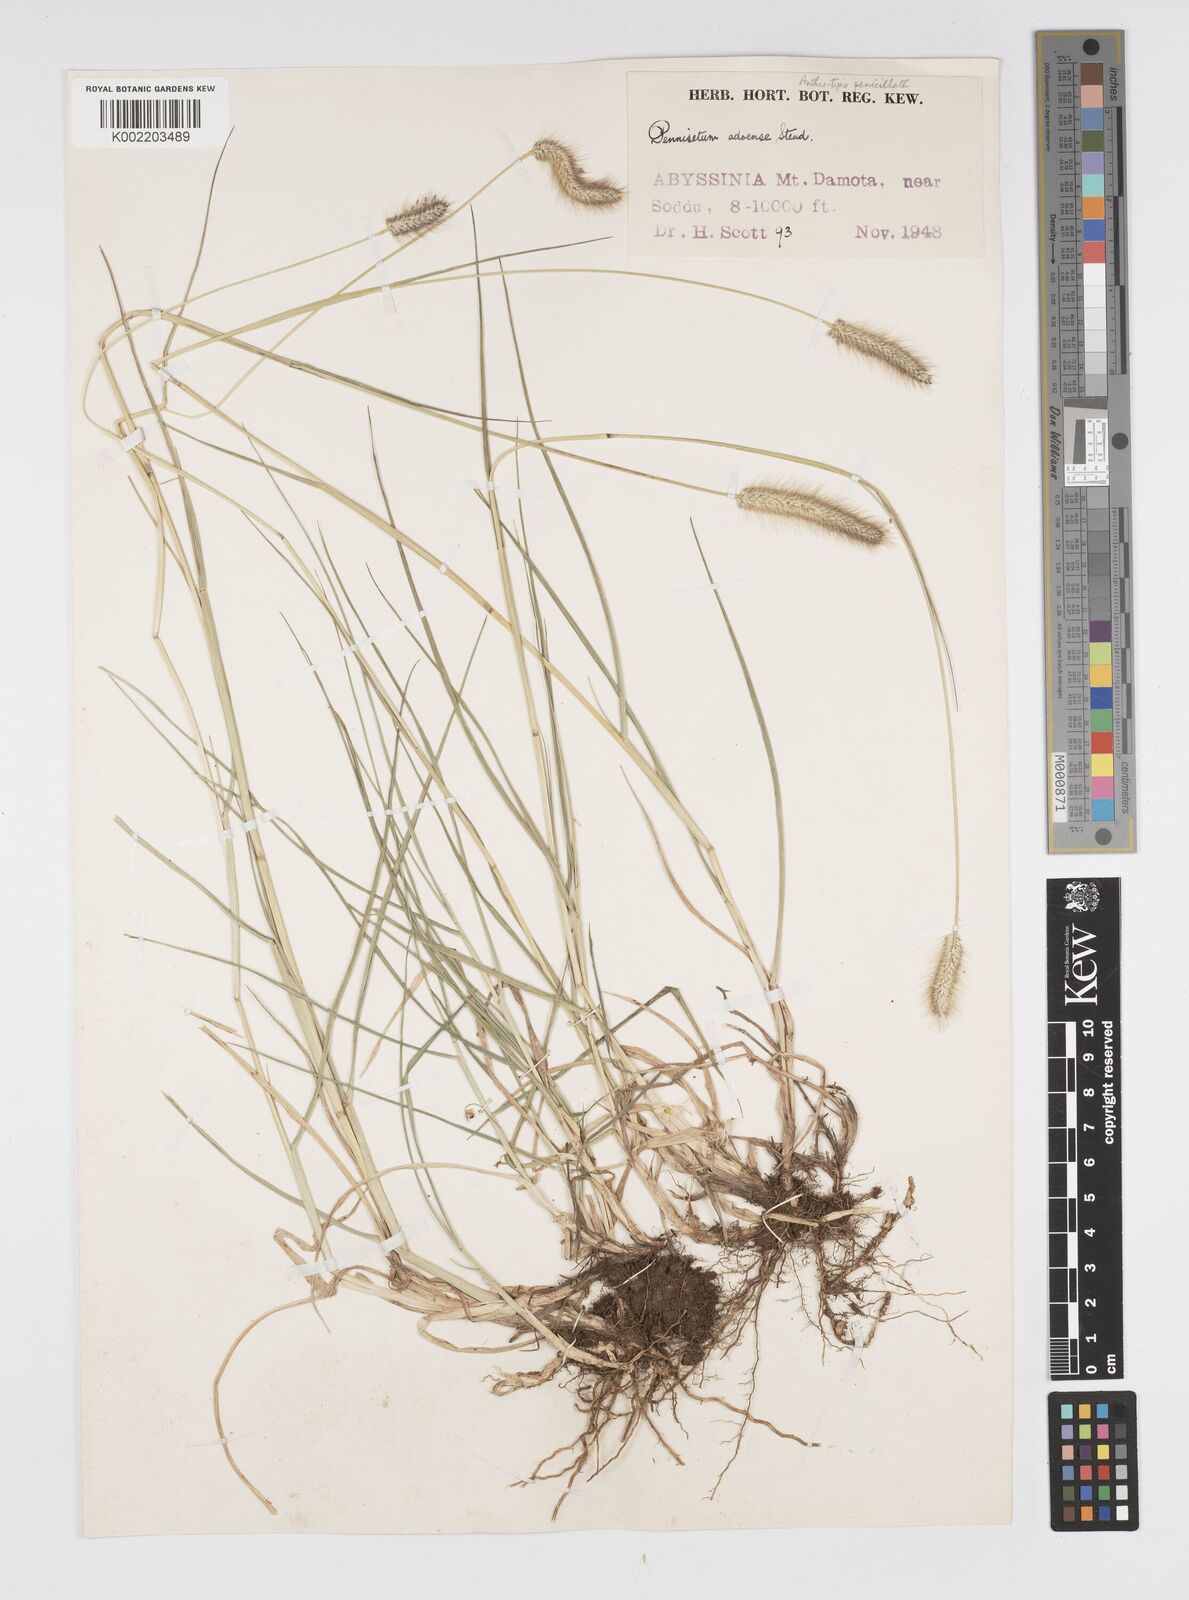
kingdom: Plantae
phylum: Tracheophyta
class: Liliopsida
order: Poales
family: Poaceae
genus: Cenchrus
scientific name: Cenchrus geniculatus
